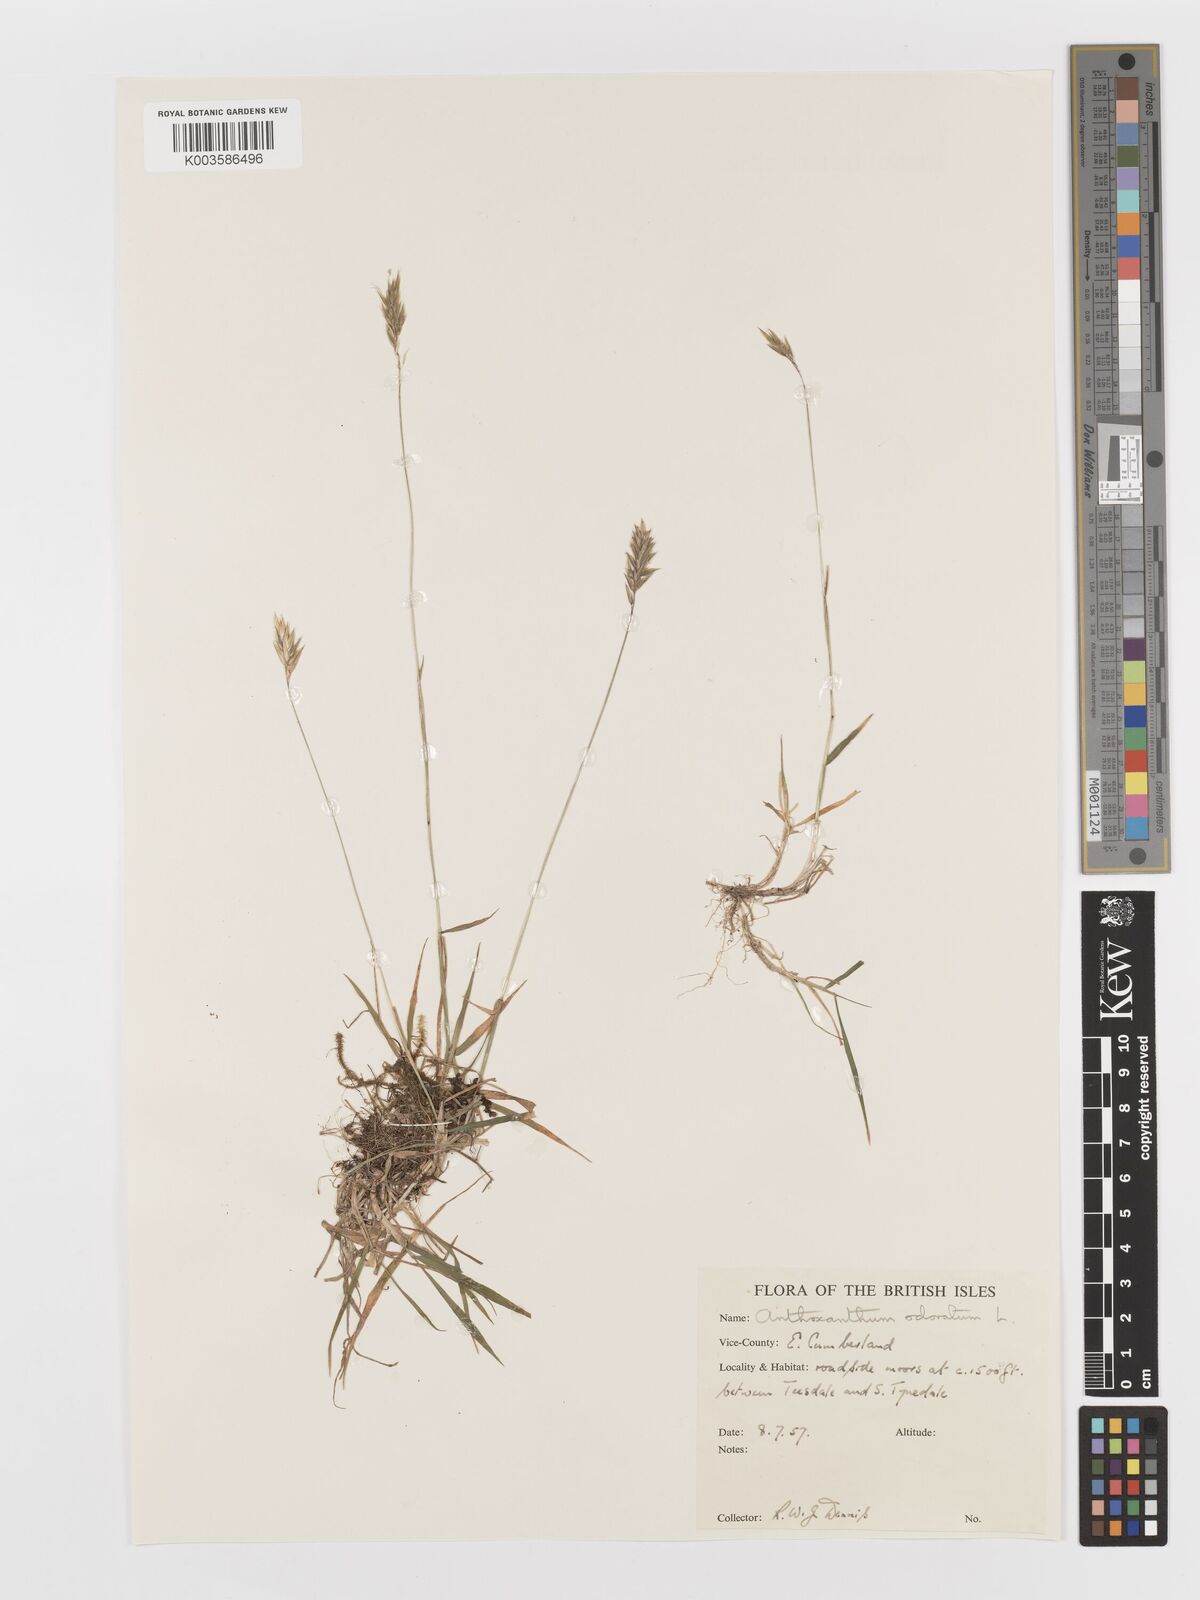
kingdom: Plantae
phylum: Tracheophyta
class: Liliopsida
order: Poales
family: Poaceae
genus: Anthoxanthum
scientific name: Anthoxanthum odoratum
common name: Sweet vernalgrass
